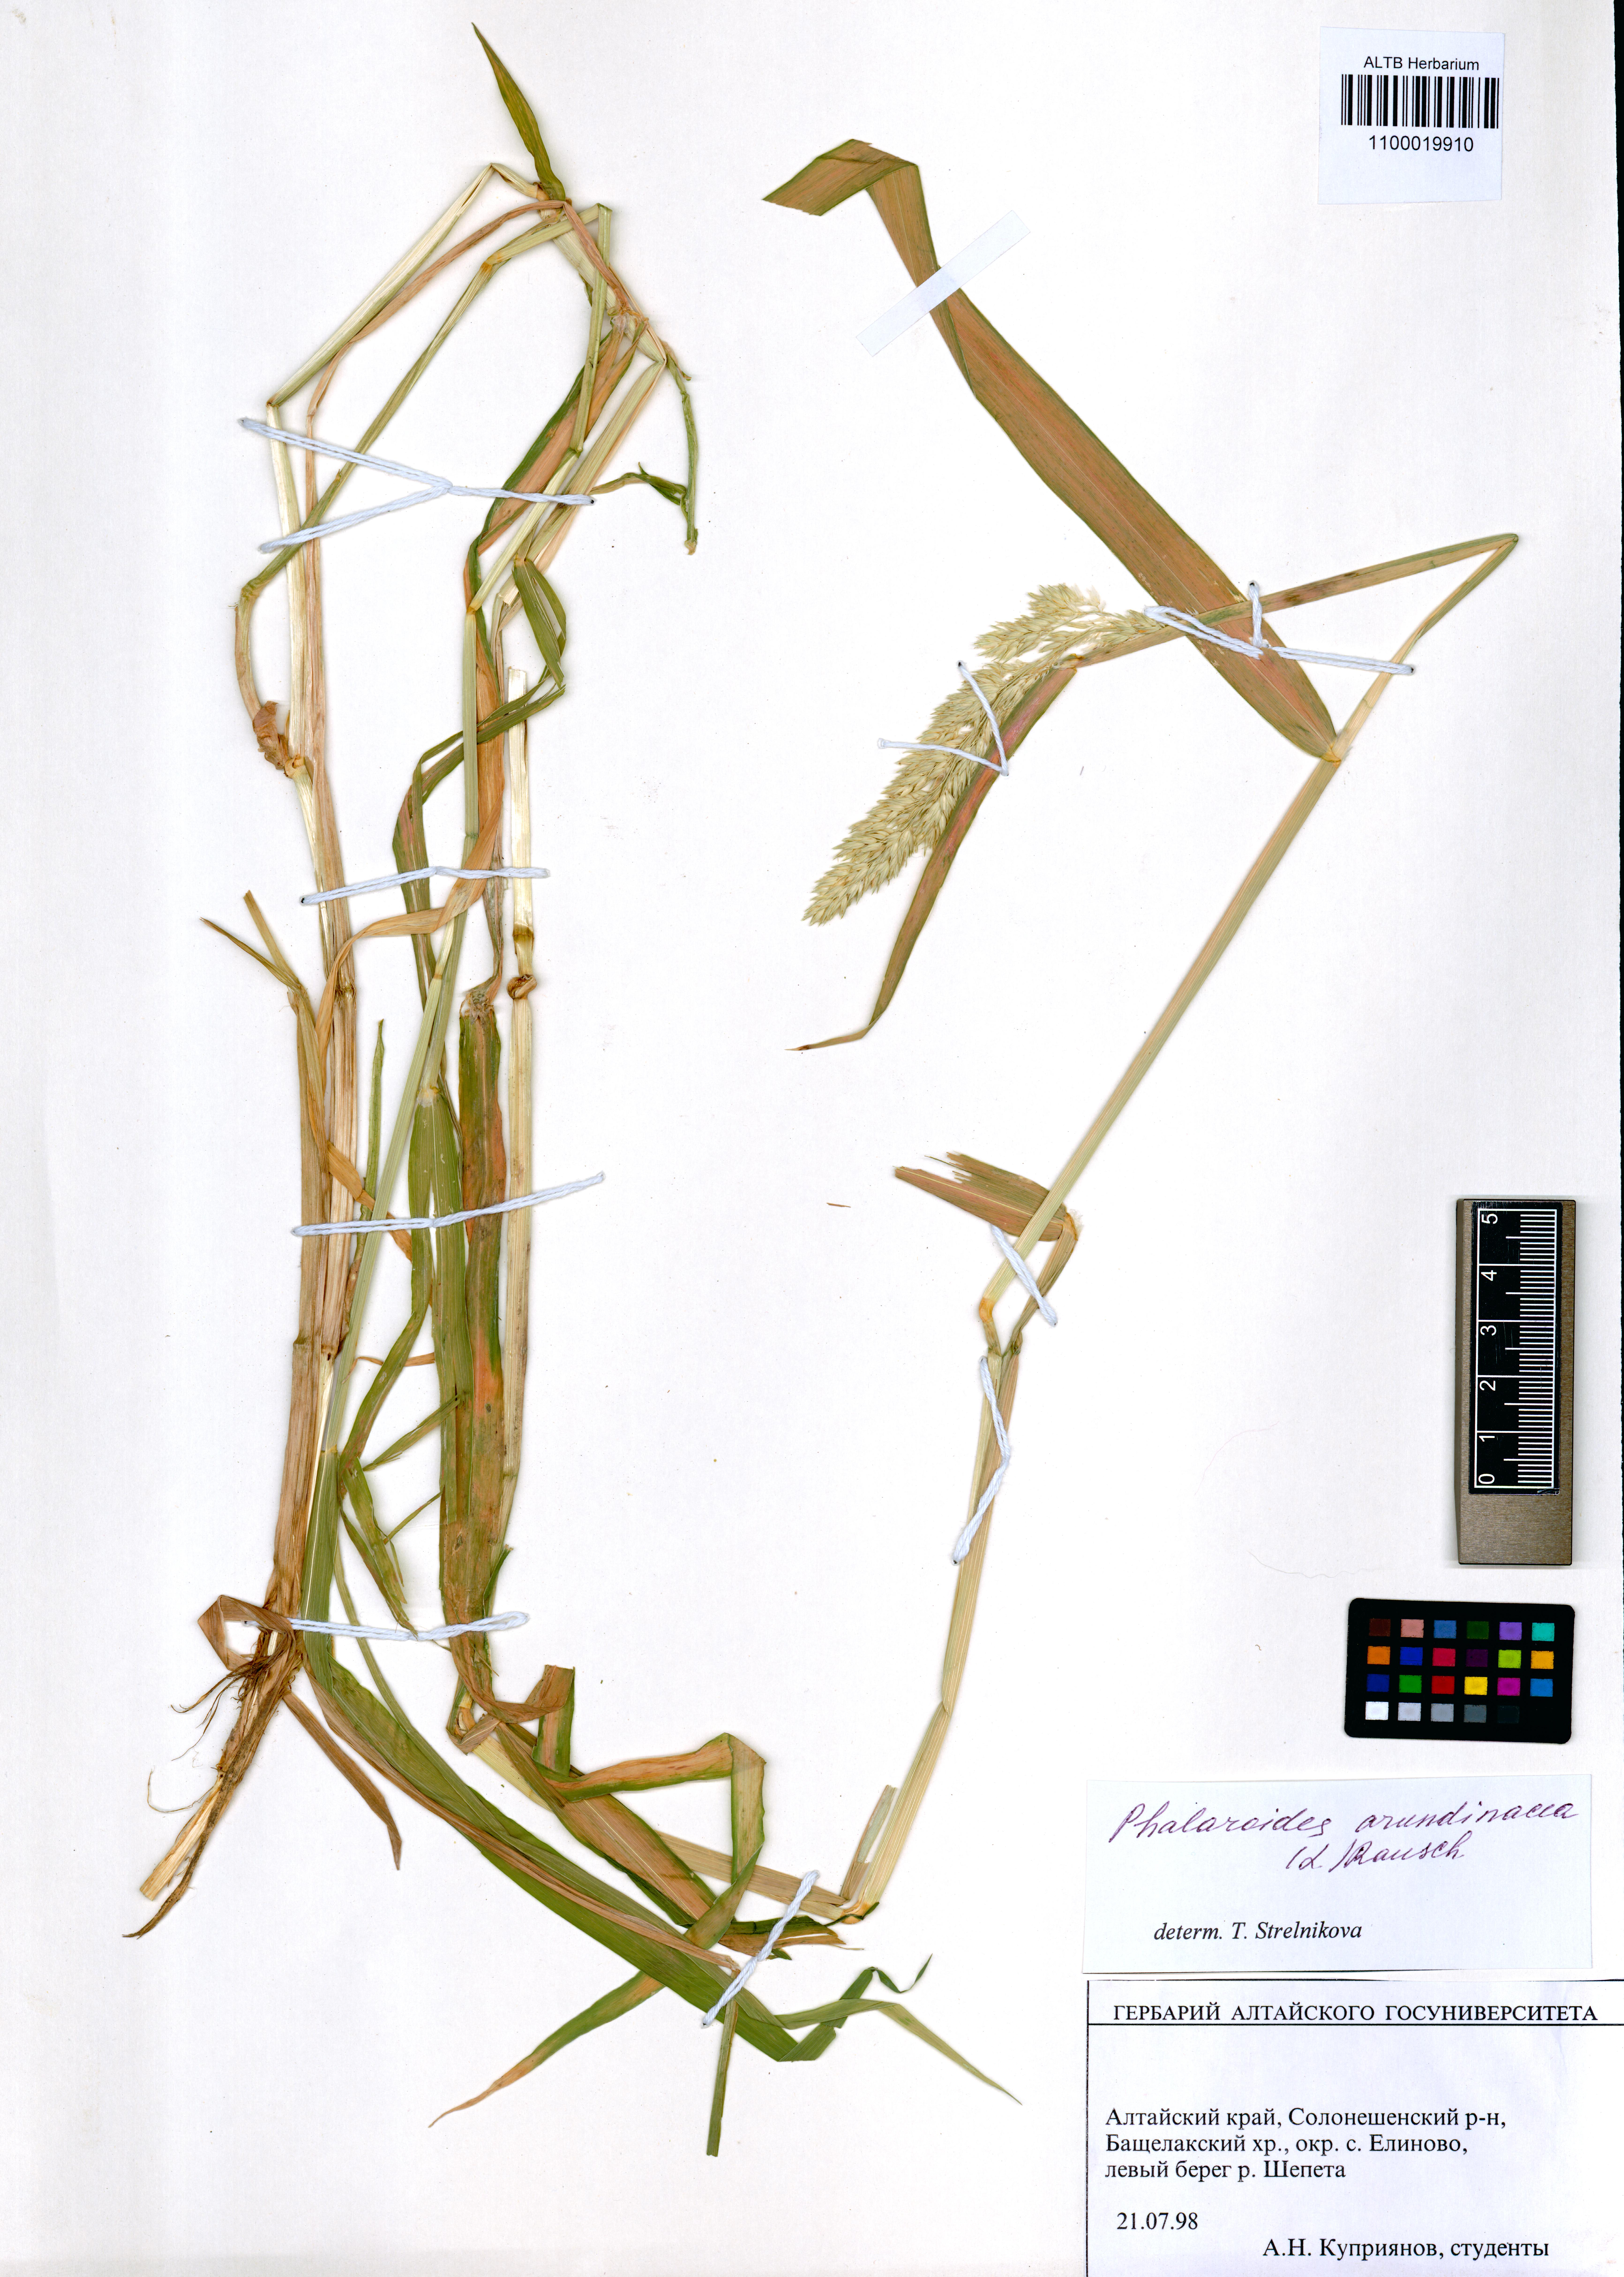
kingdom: Plantae
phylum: Tracheophyta
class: Liliopsida
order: Poales
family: Poaceae
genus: Phalaris
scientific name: Phalaris arundinacea
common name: Reed canary-grass
